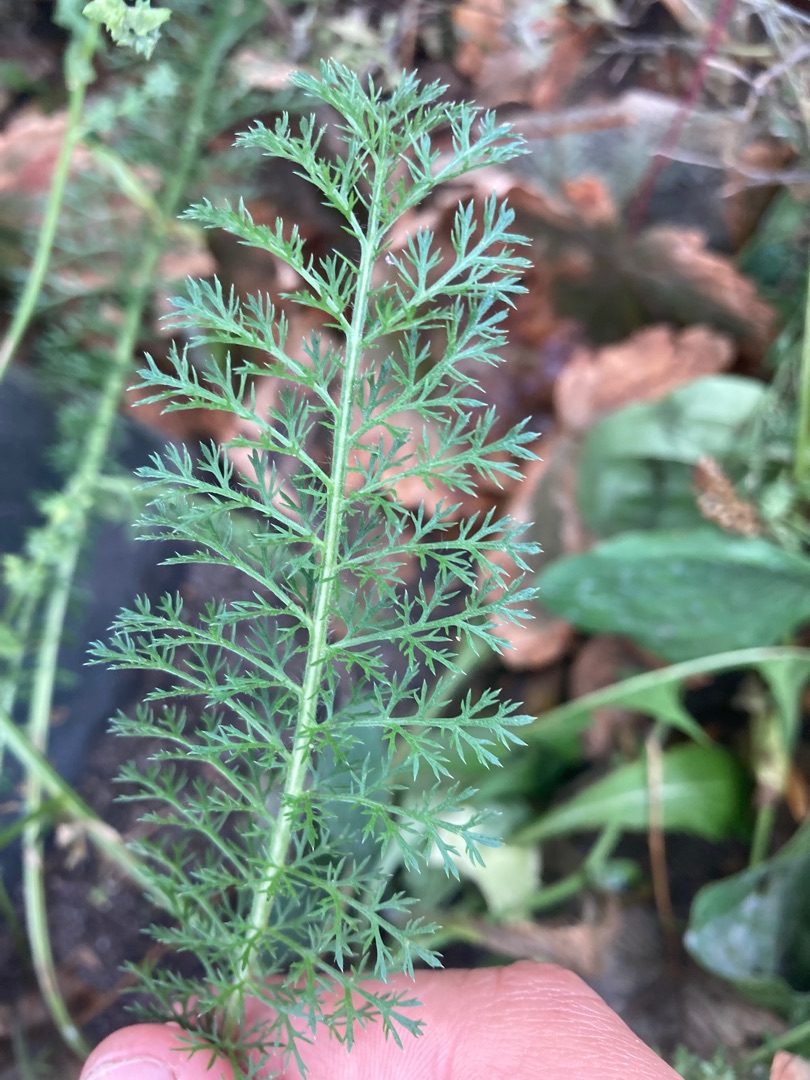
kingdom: Plantae
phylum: Tracheophyta
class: Magnoliopsida
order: Asterales
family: Asteraceae
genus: Achillea
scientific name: Achillea millefolium
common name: Almindelig røllike
